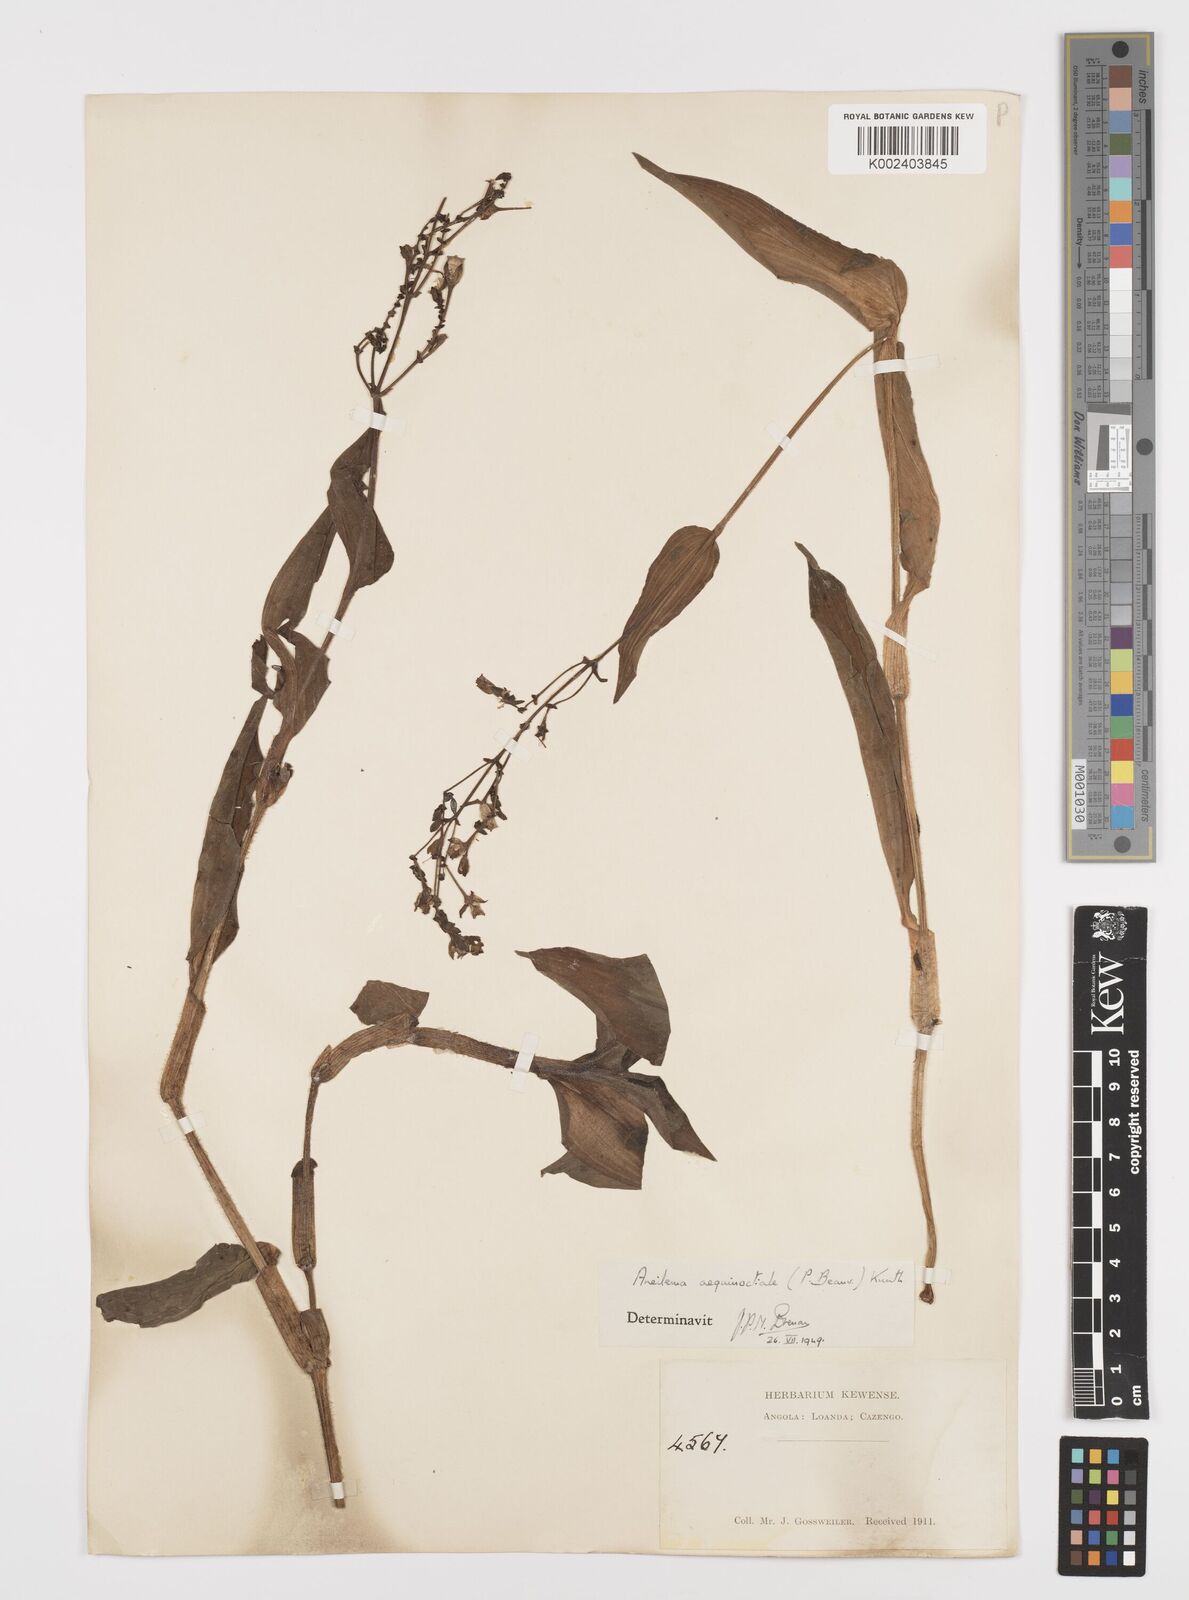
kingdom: Plantae
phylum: Tracheophyta
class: Liliopsida
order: Commelinales
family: Commelinaceae
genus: Aneilema
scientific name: Aneilema aequinoctiale
